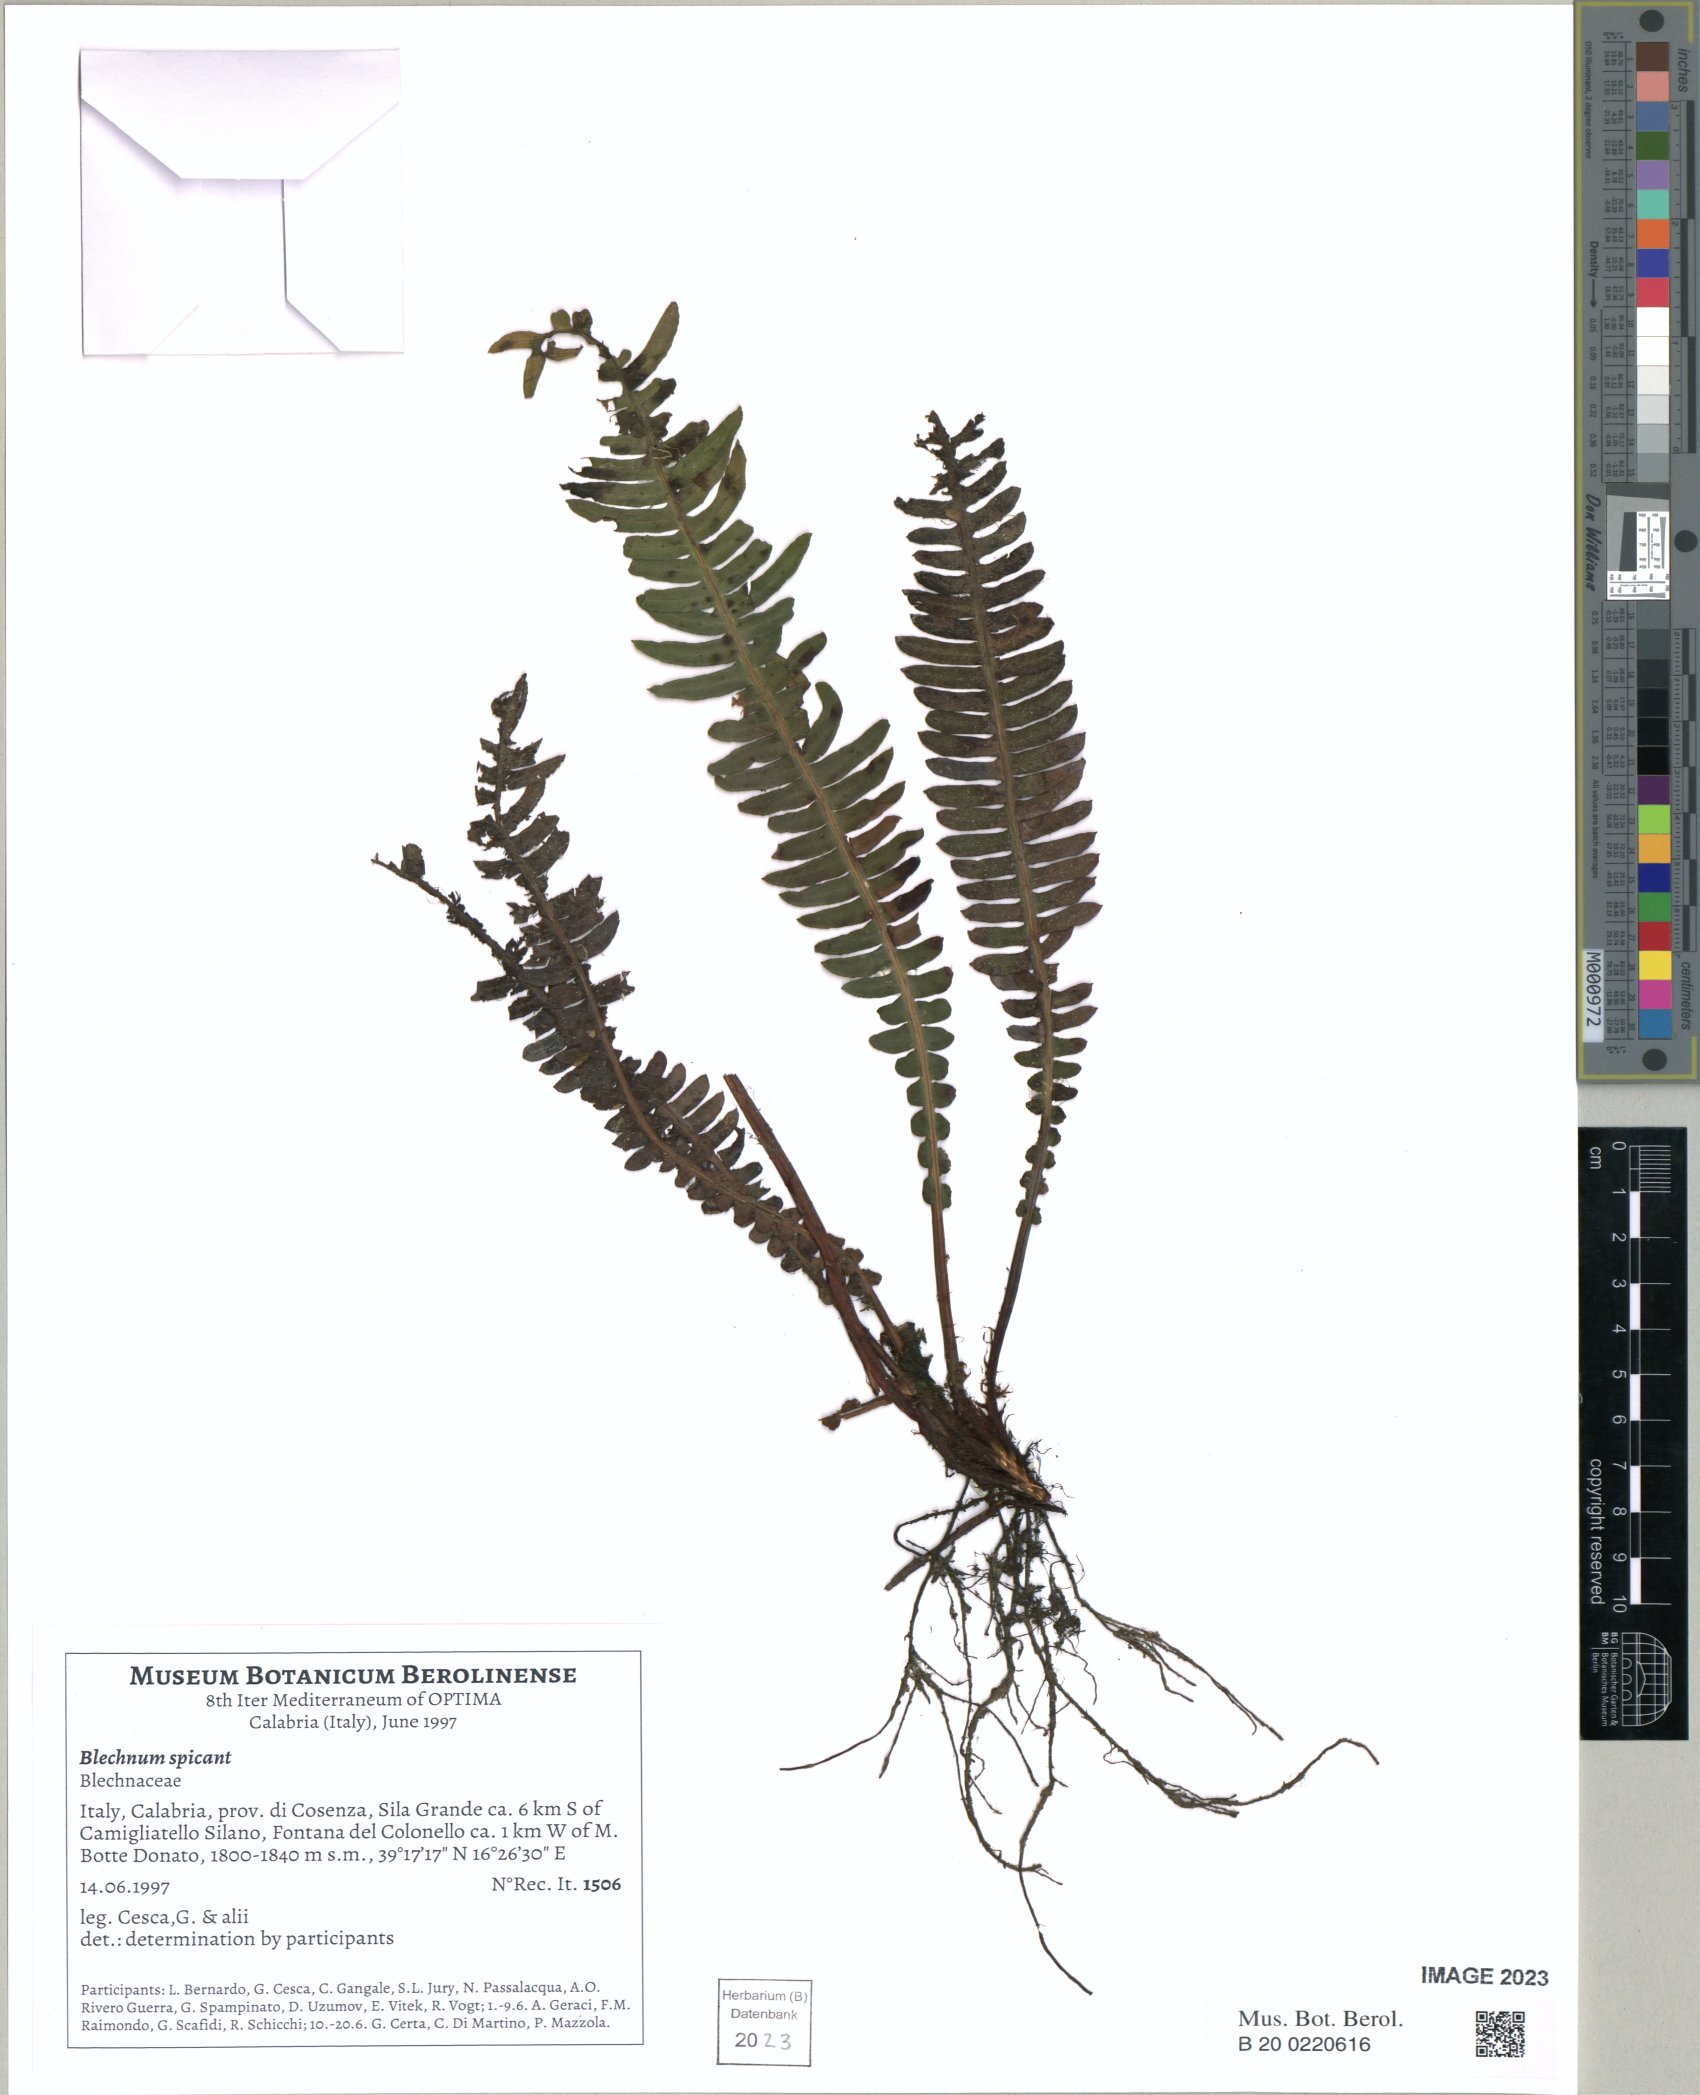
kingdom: Plantae
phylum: Tracheophyta
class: Polypodiopsida
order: Polypodiales
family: Blechnaceae
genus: Struthiopteris
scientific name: Struthiopteris spicant
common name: Deer fern
